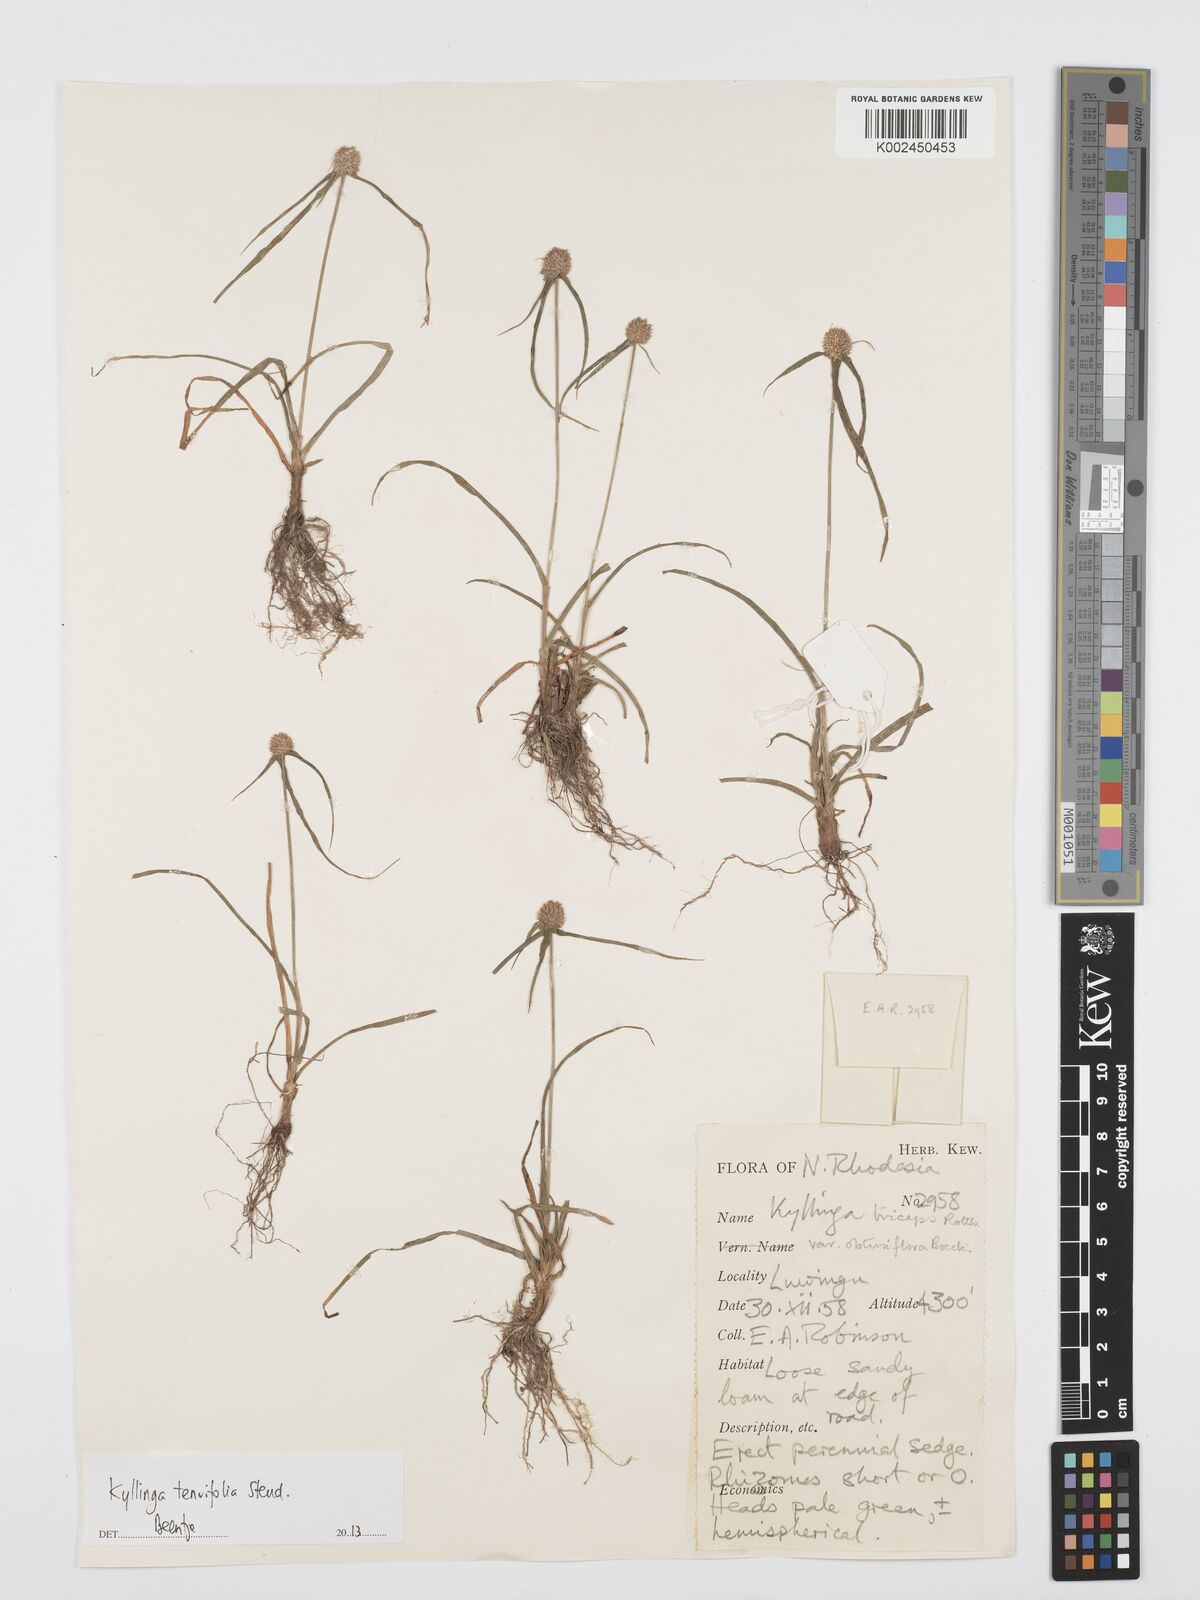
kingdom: Plantae
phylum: Tracheophyta
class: Liliopsida
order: Poales
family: Cyperaceae
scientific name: Cyperaceae
